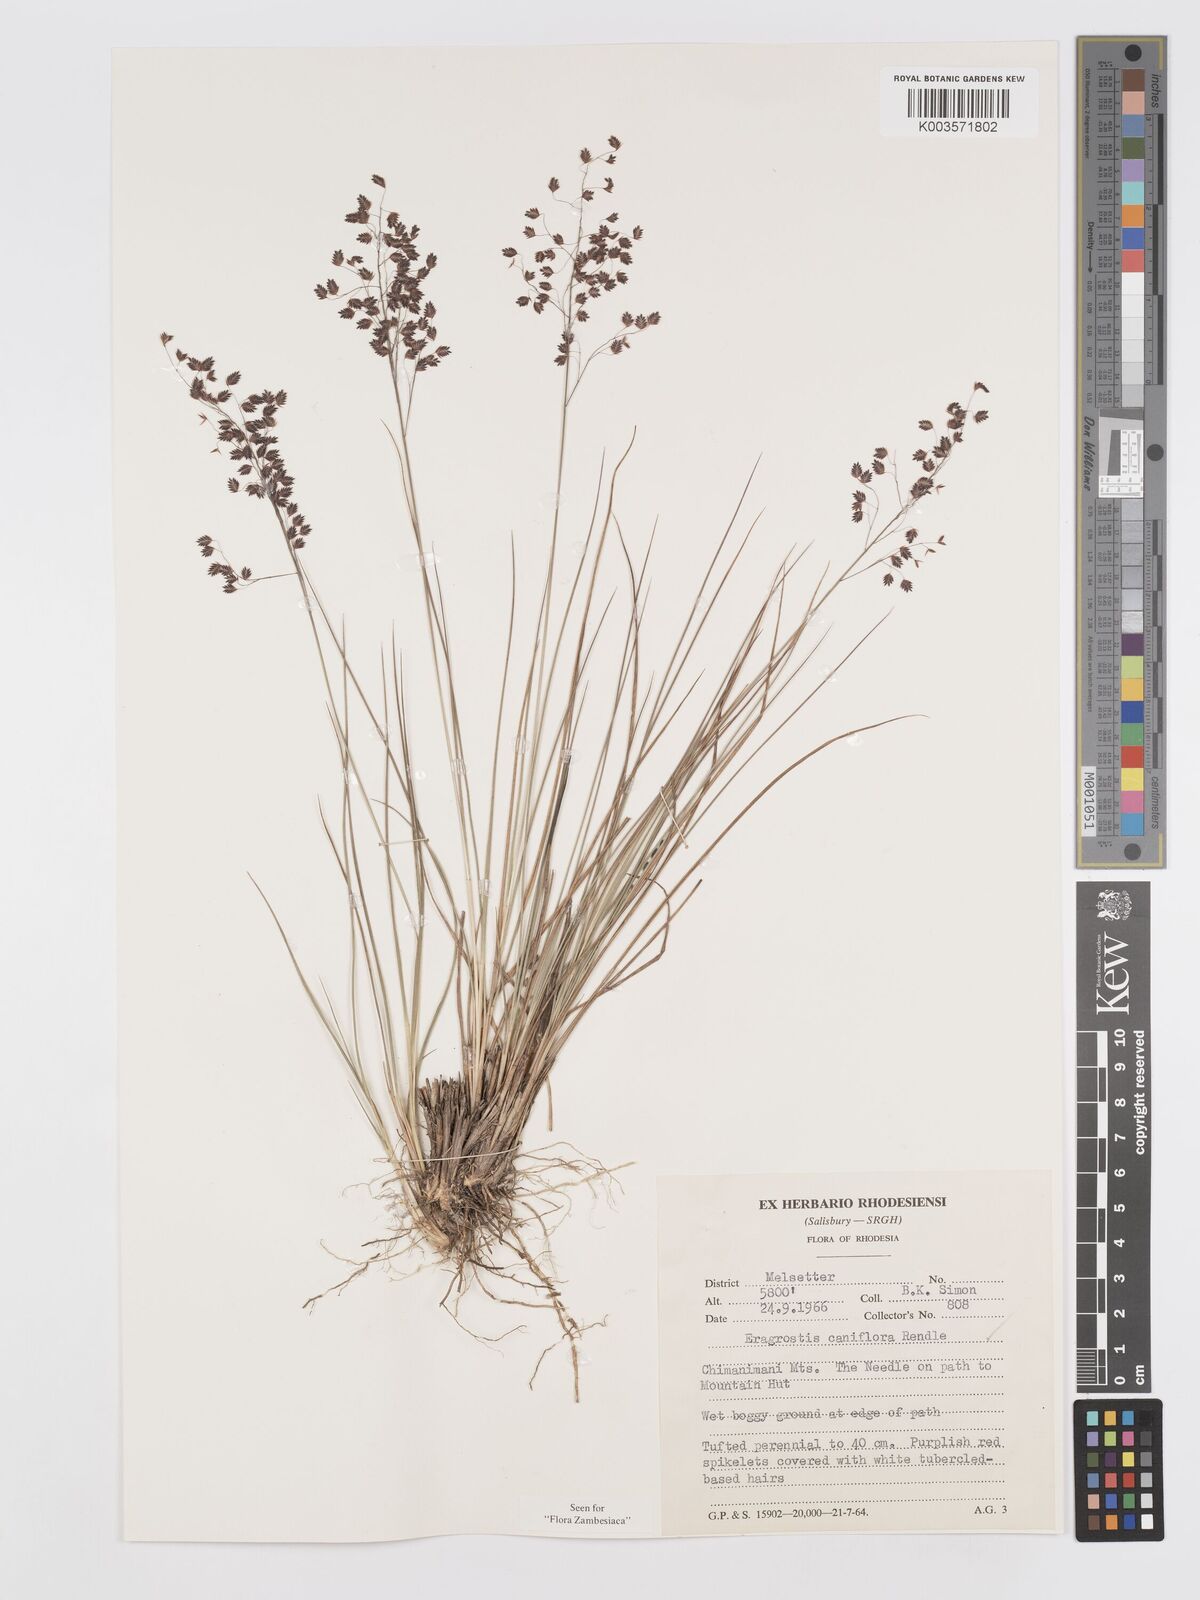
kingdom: Plantae
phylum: Tracheophyta
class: Liliopsida
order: Poales
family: Poaceae
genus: Eragrostis
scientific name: Eragrostis caniflora
